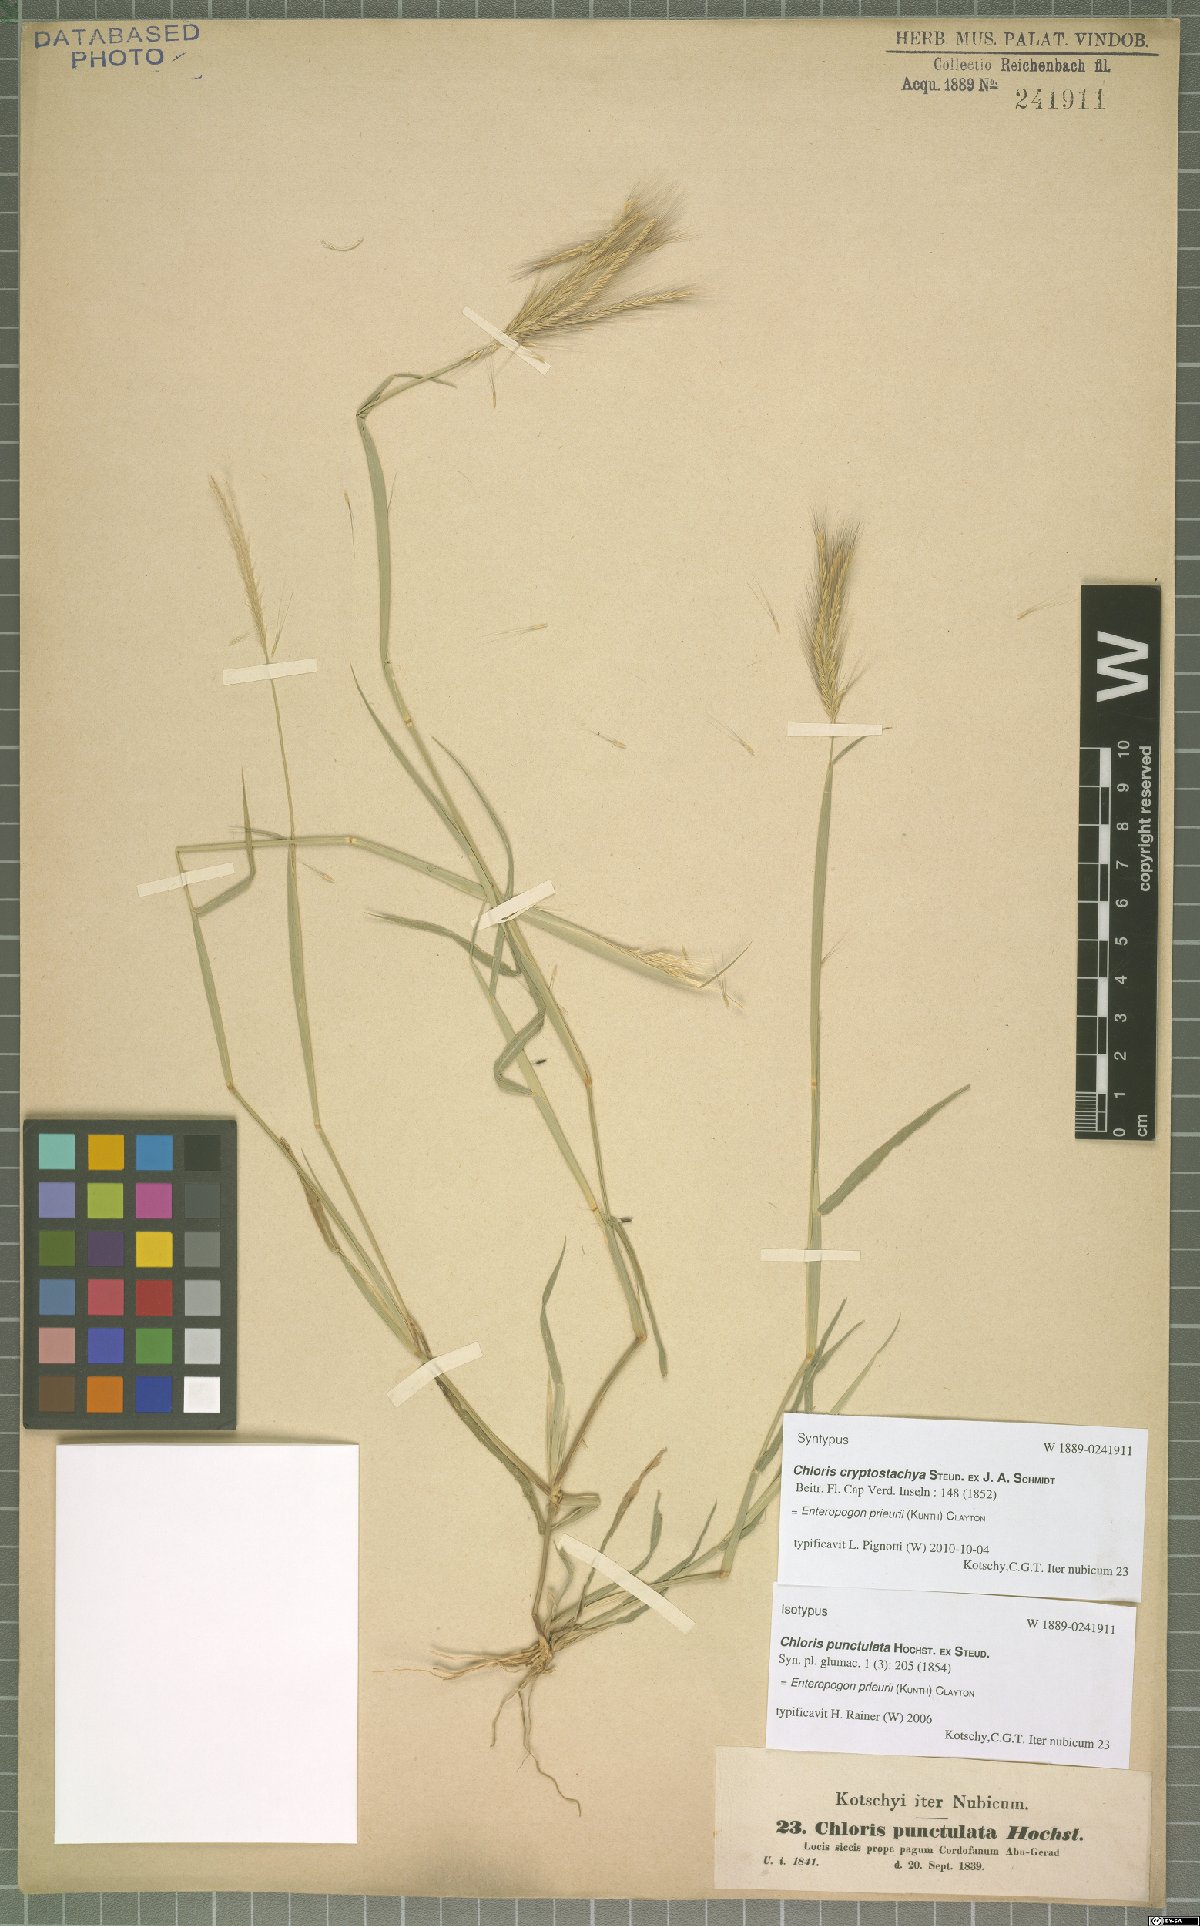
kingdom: Plantae
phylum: Tracheophyta
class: Liliopsida
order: Poales
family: Poaceae
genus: Enteropogon
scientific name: Enteropogon prieurii
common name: Prieur's umbrellagrass
